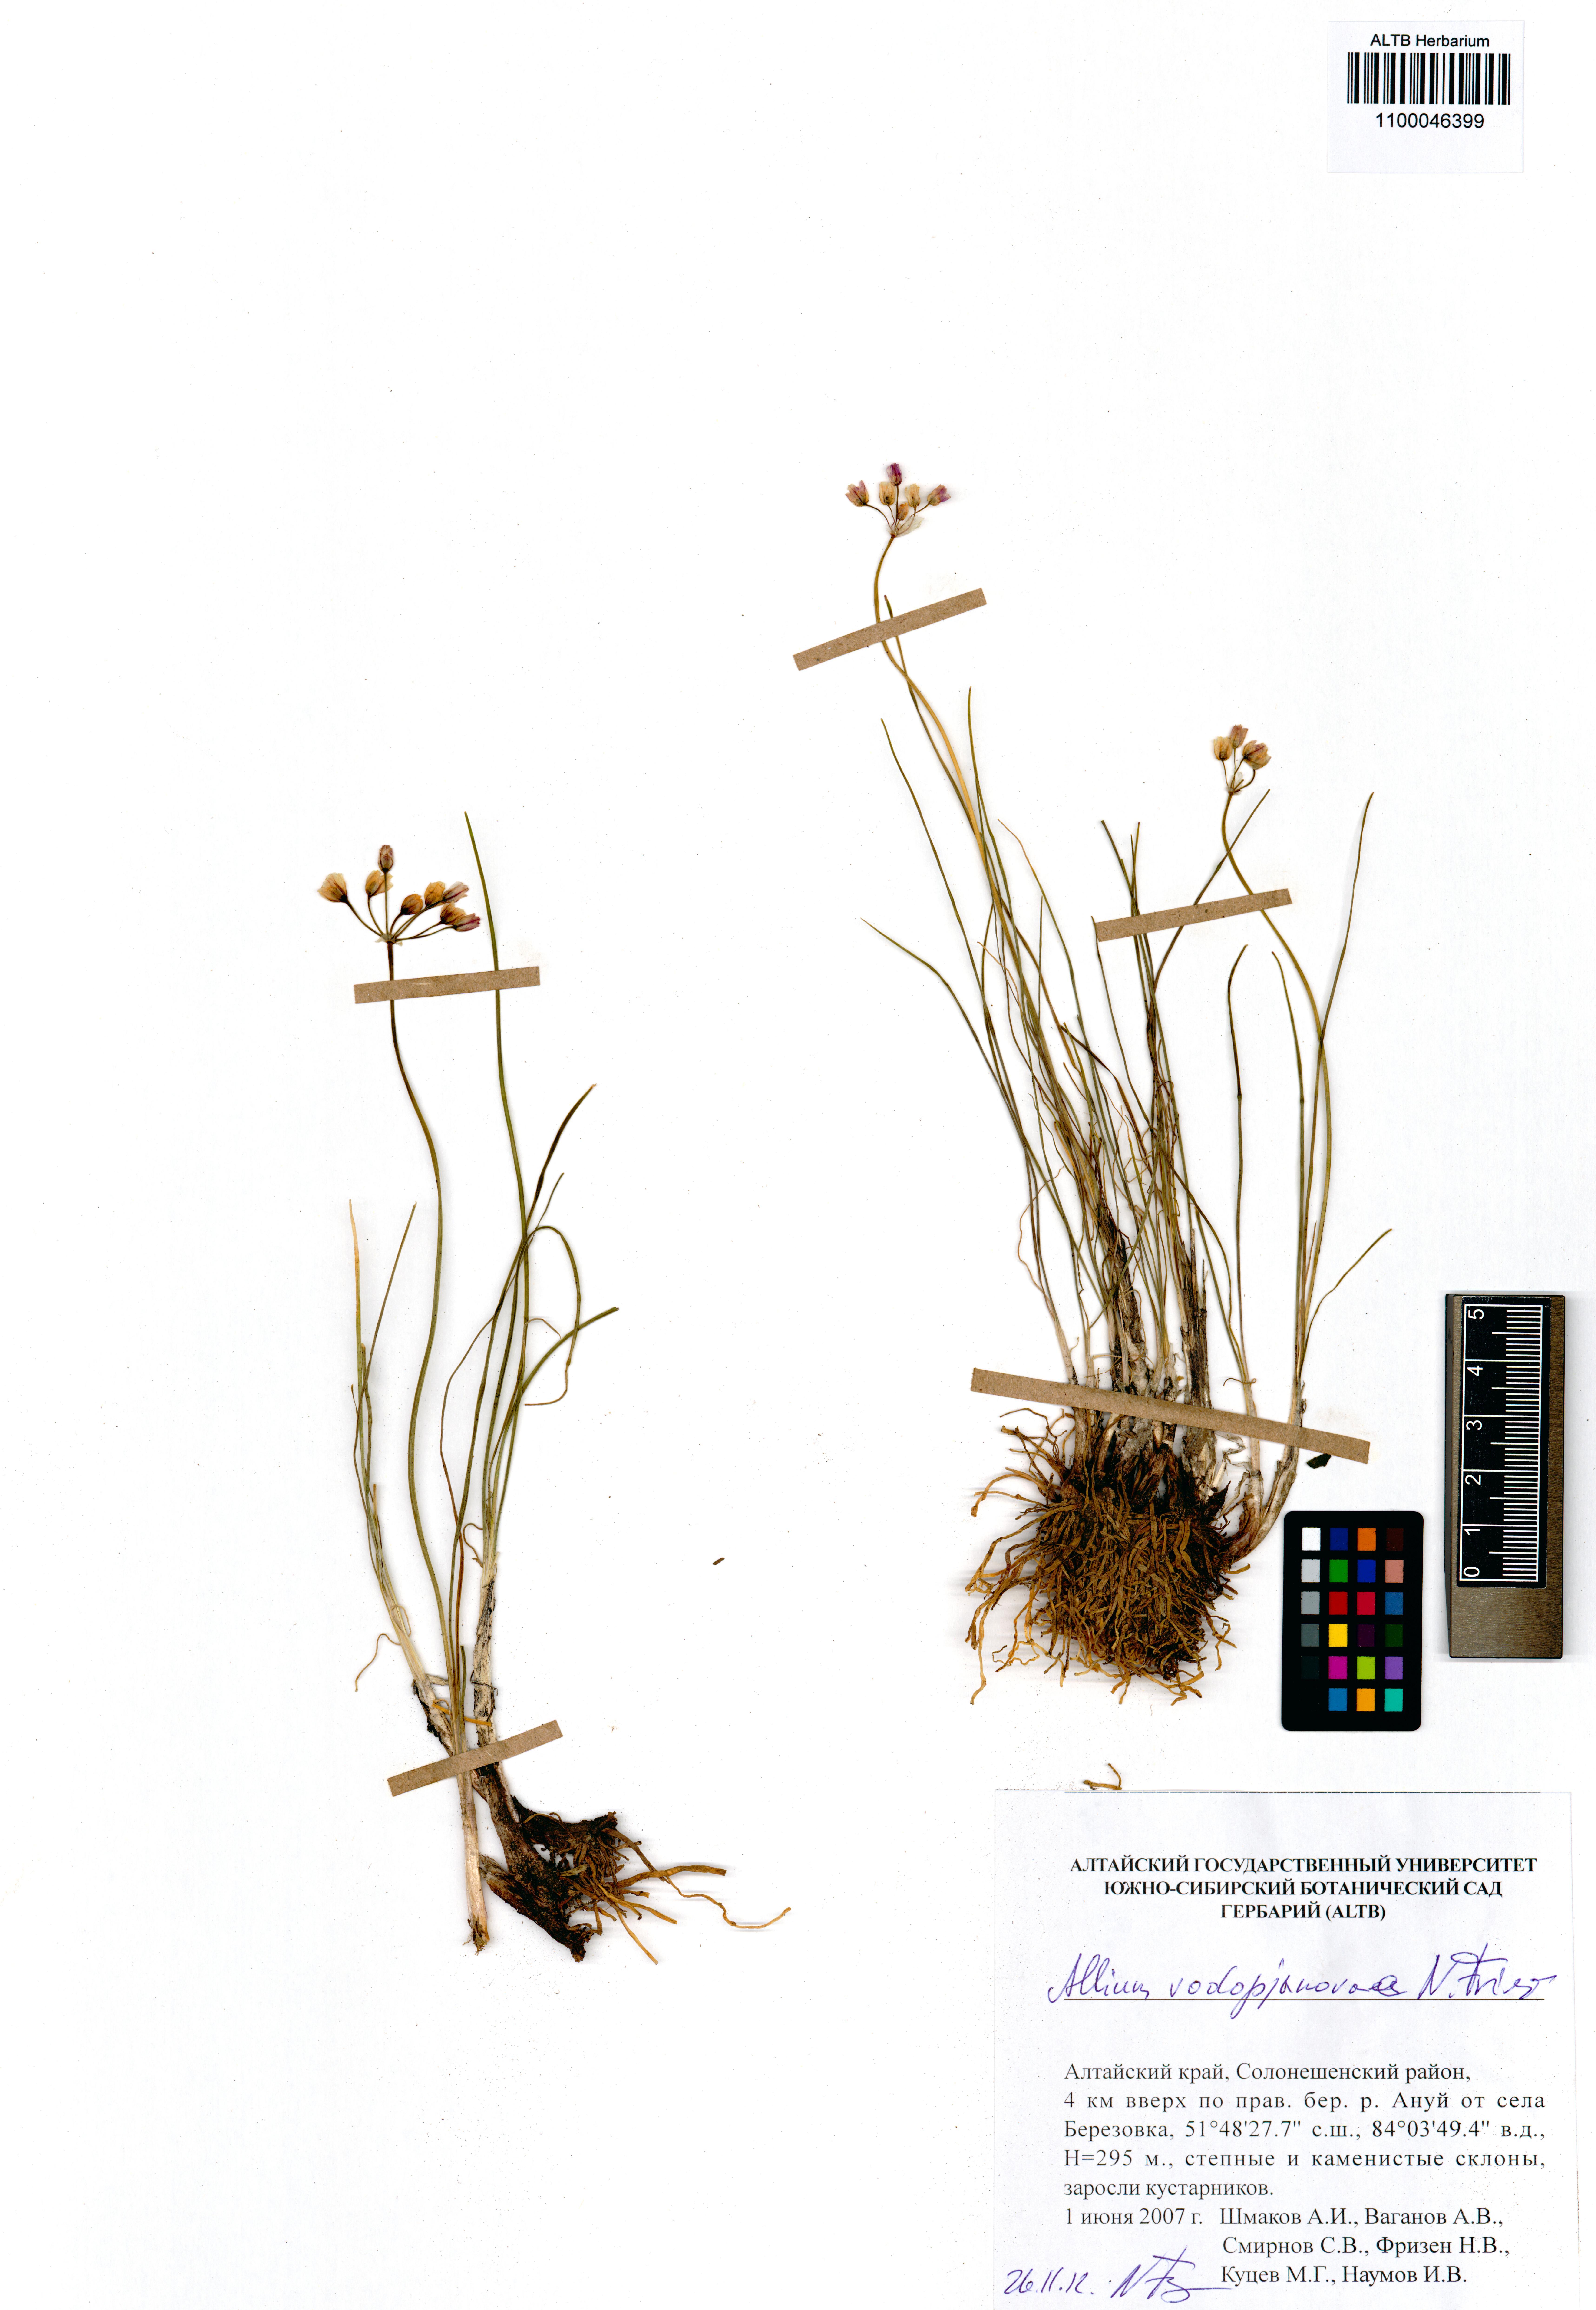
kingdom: Plantae
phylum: Tracheophyta
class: Liliopsida
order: Asparagales
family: Amaryllidaceae
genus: Allium
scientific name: Allium vodopjanovae
